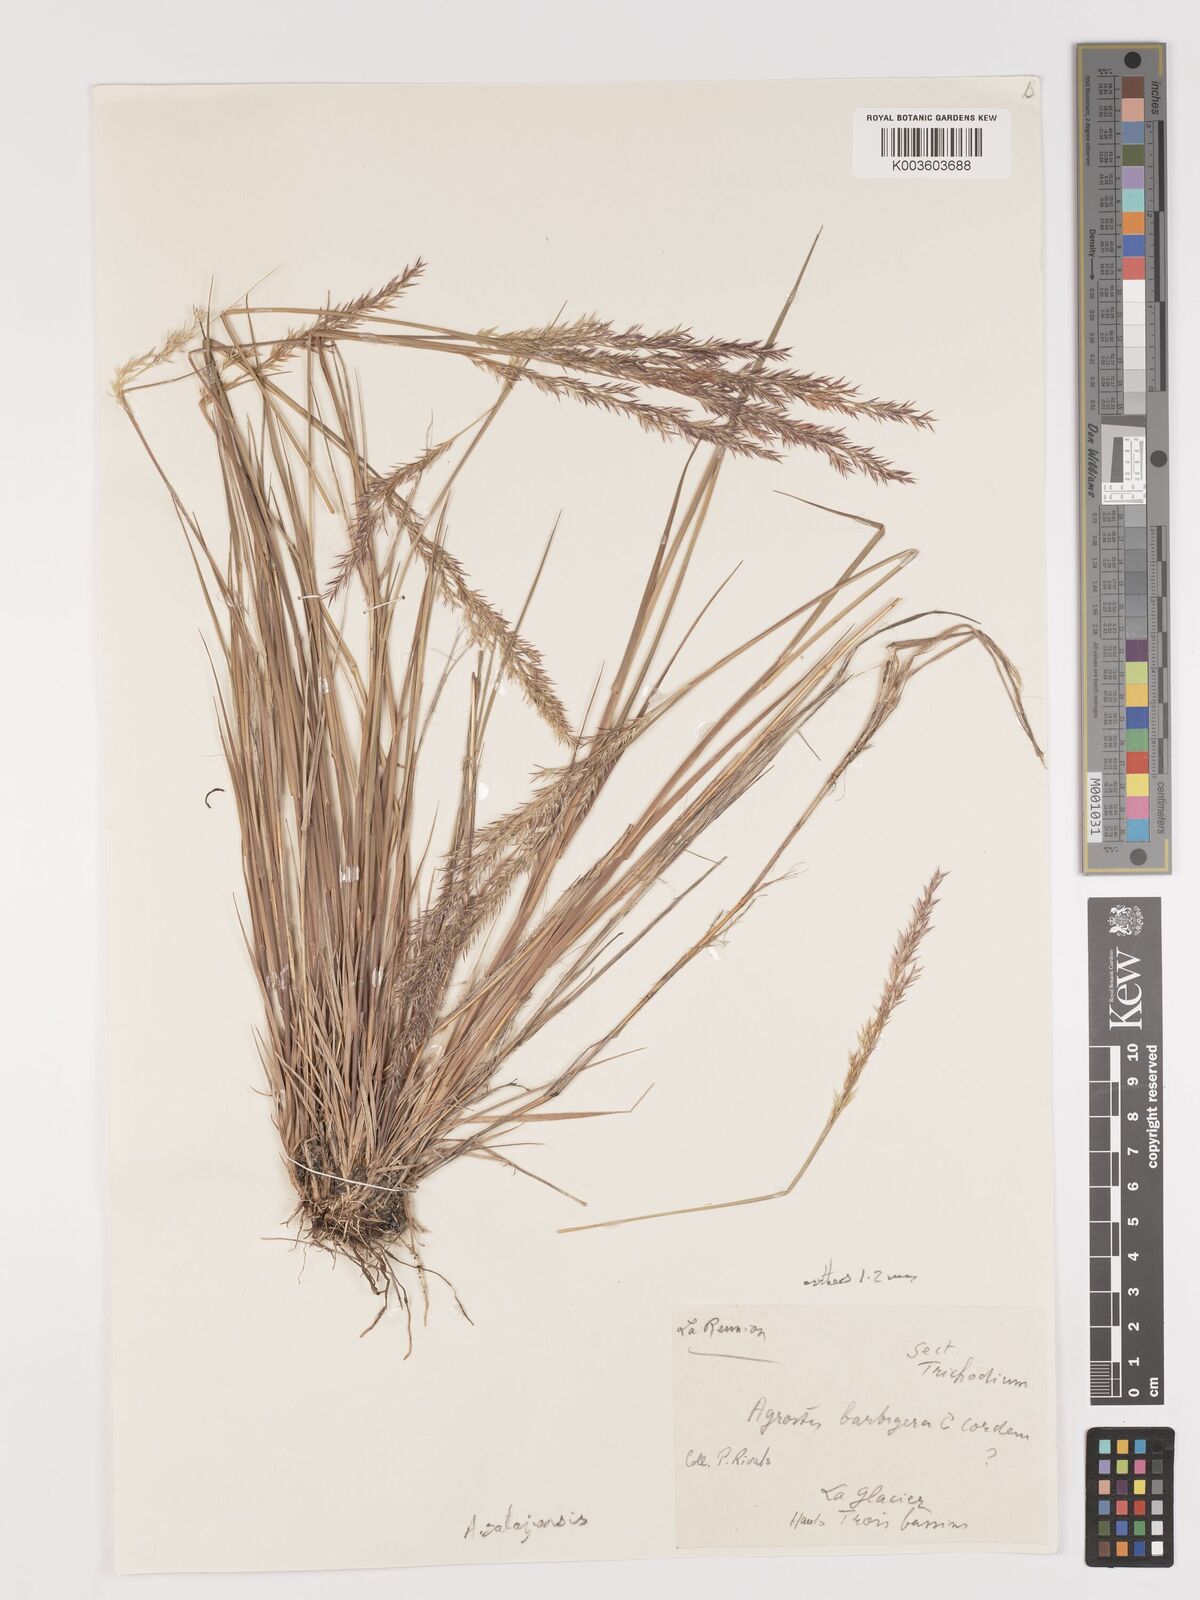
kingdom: Plantae
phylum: Tracheophyta
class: Liliopsida
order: Poales
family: Poaceae
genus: Agrostis
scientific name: Agrostis salaziensis
